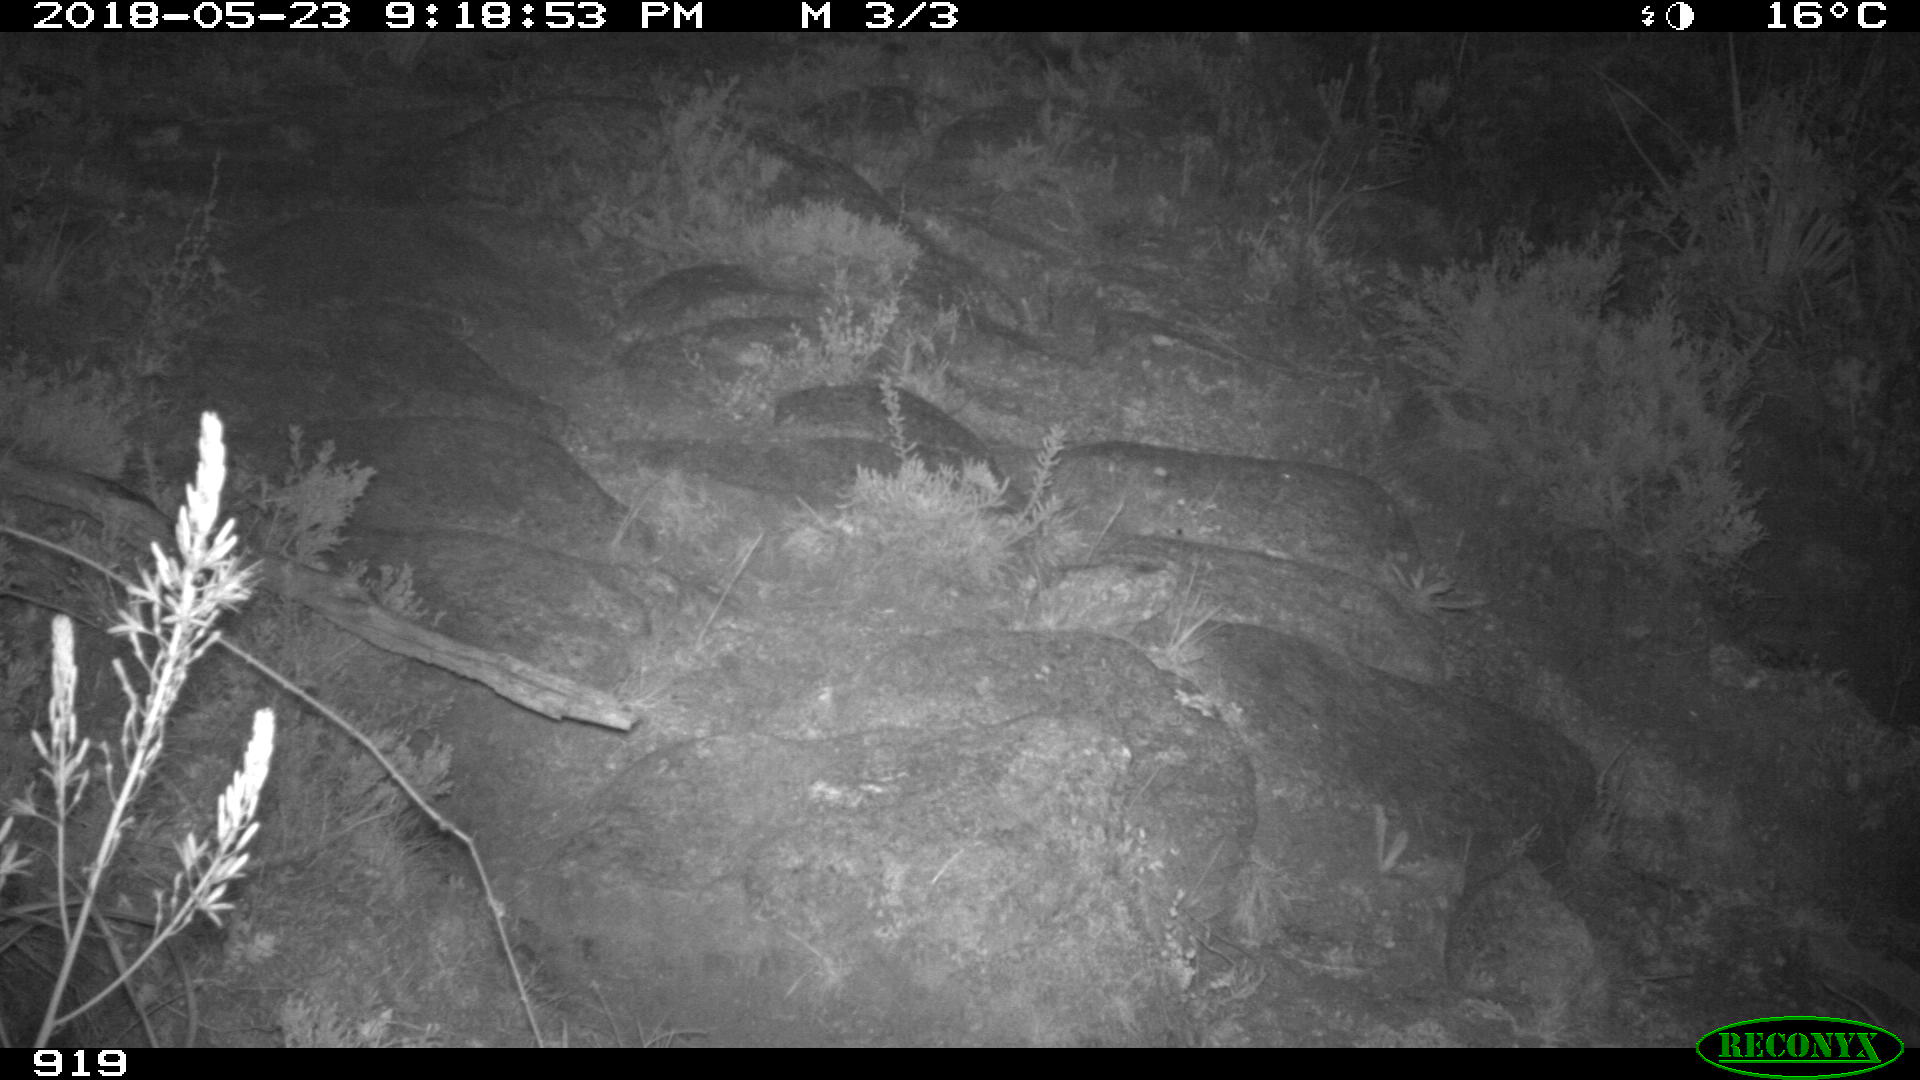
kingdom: Animalia
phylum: Chordata
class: Mammalia
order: Artiodactyla
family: Bovidae
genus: Bos
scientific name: Bos taurus
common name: Domesticated cattle
